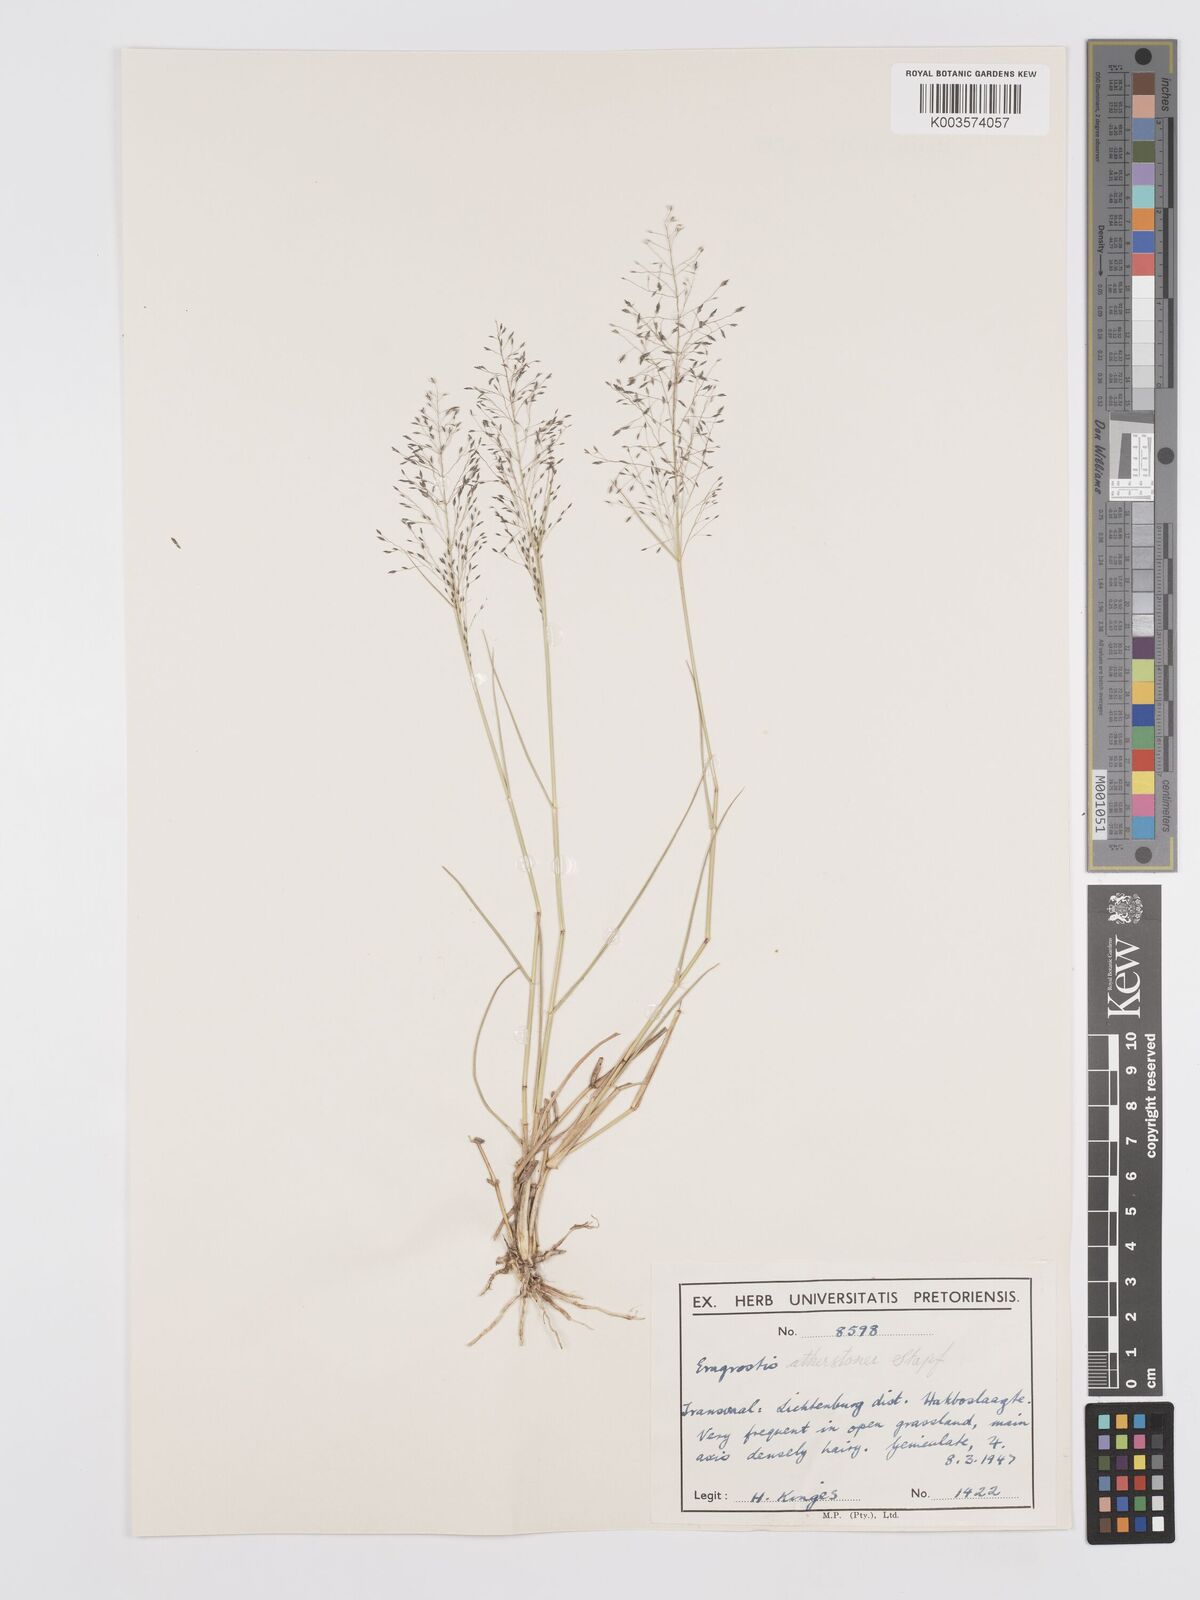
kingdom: Plantae
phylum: Tracheophyta
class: Liliopsida
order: Poales
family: Poaceae
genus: Eragrostis
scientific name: Eragrostis cylindriflora
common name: Cylinderflower lovegrass
